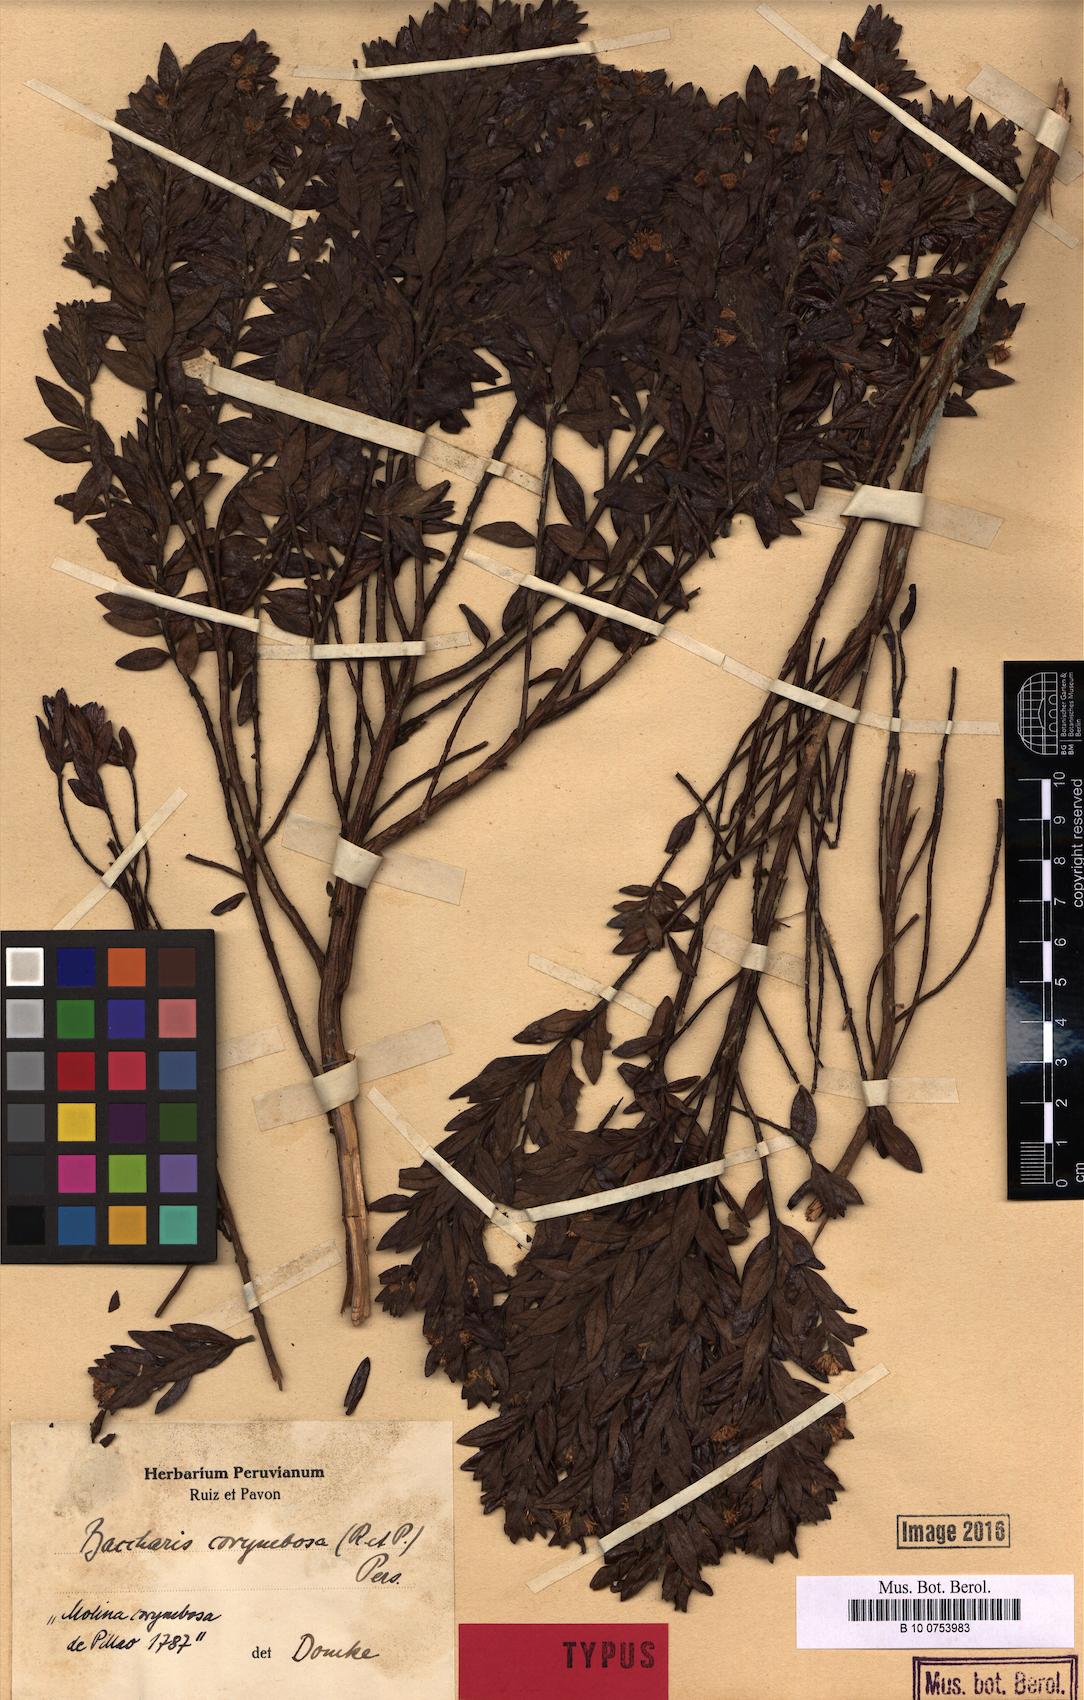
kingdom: Plantae
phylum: Tracheophyta
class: Magnoliopsida
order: Asterales
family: Asteraceae
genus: Baccharis
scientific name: Baccharis corymbosa
